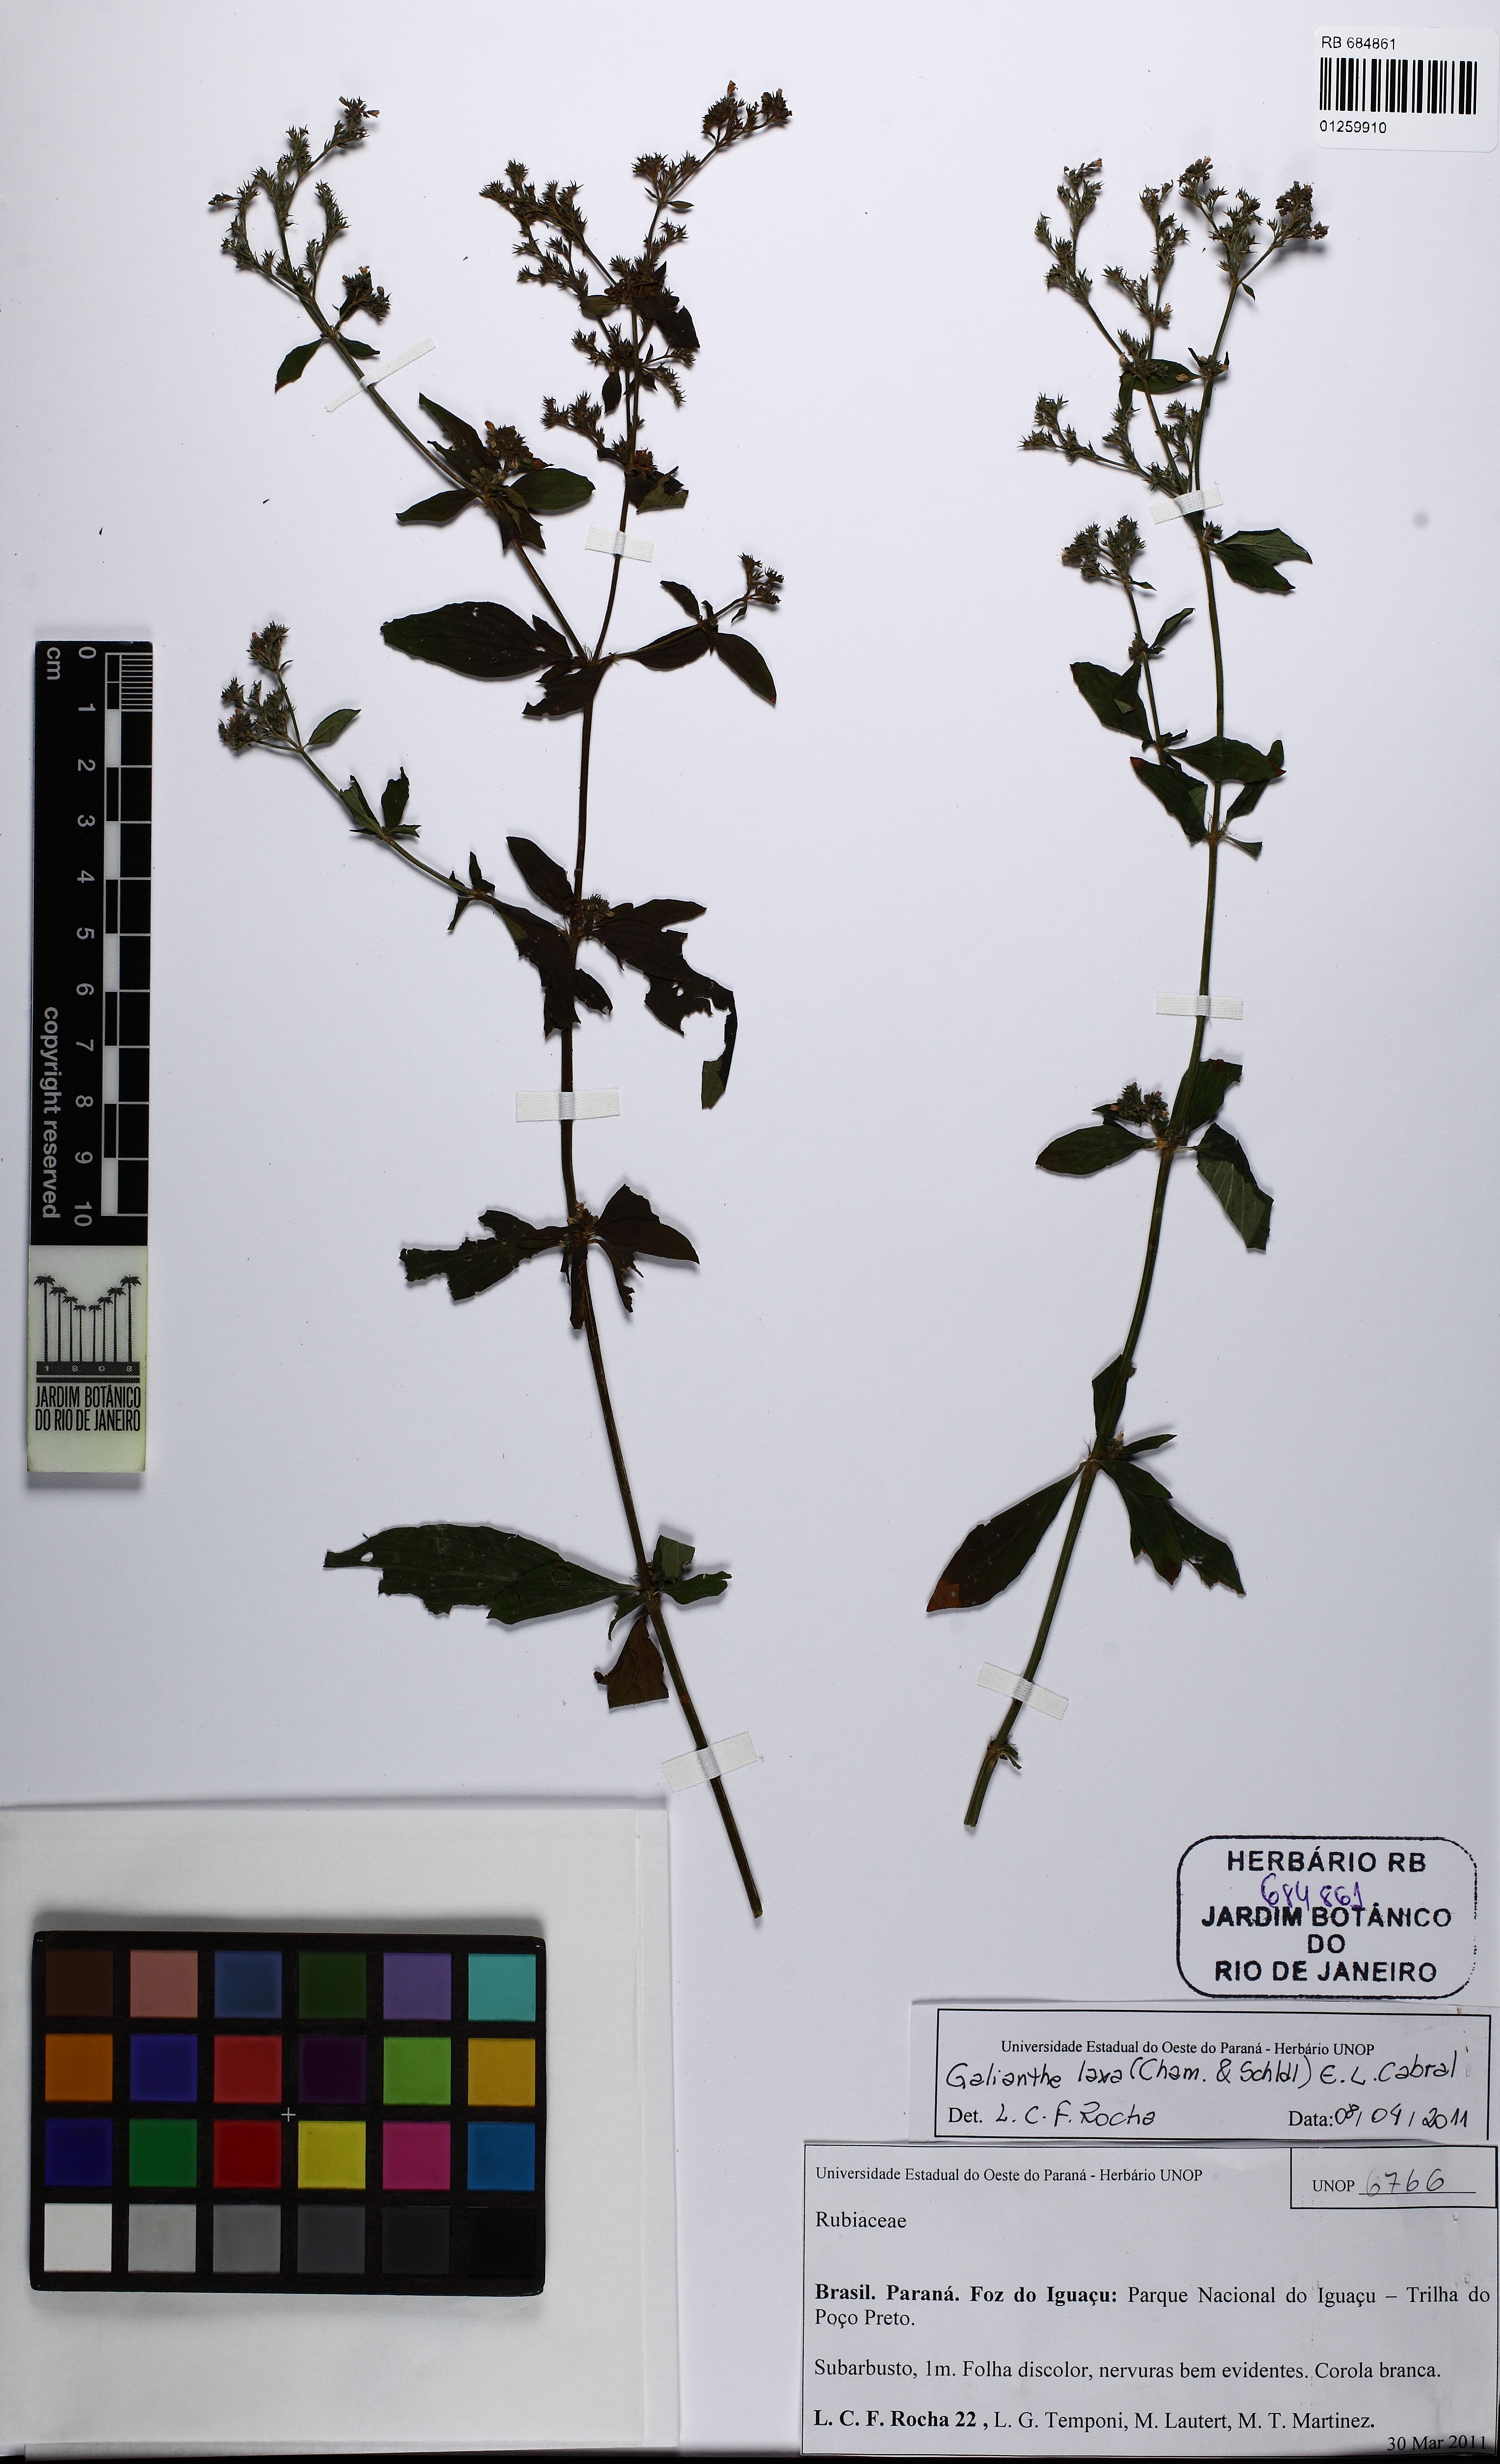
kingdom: Plantae
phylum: Tracheophyta
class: Magnoliopsida
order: Gentianales
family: Rubiaceae
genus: Galianthe
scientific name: Galianthe laxa
